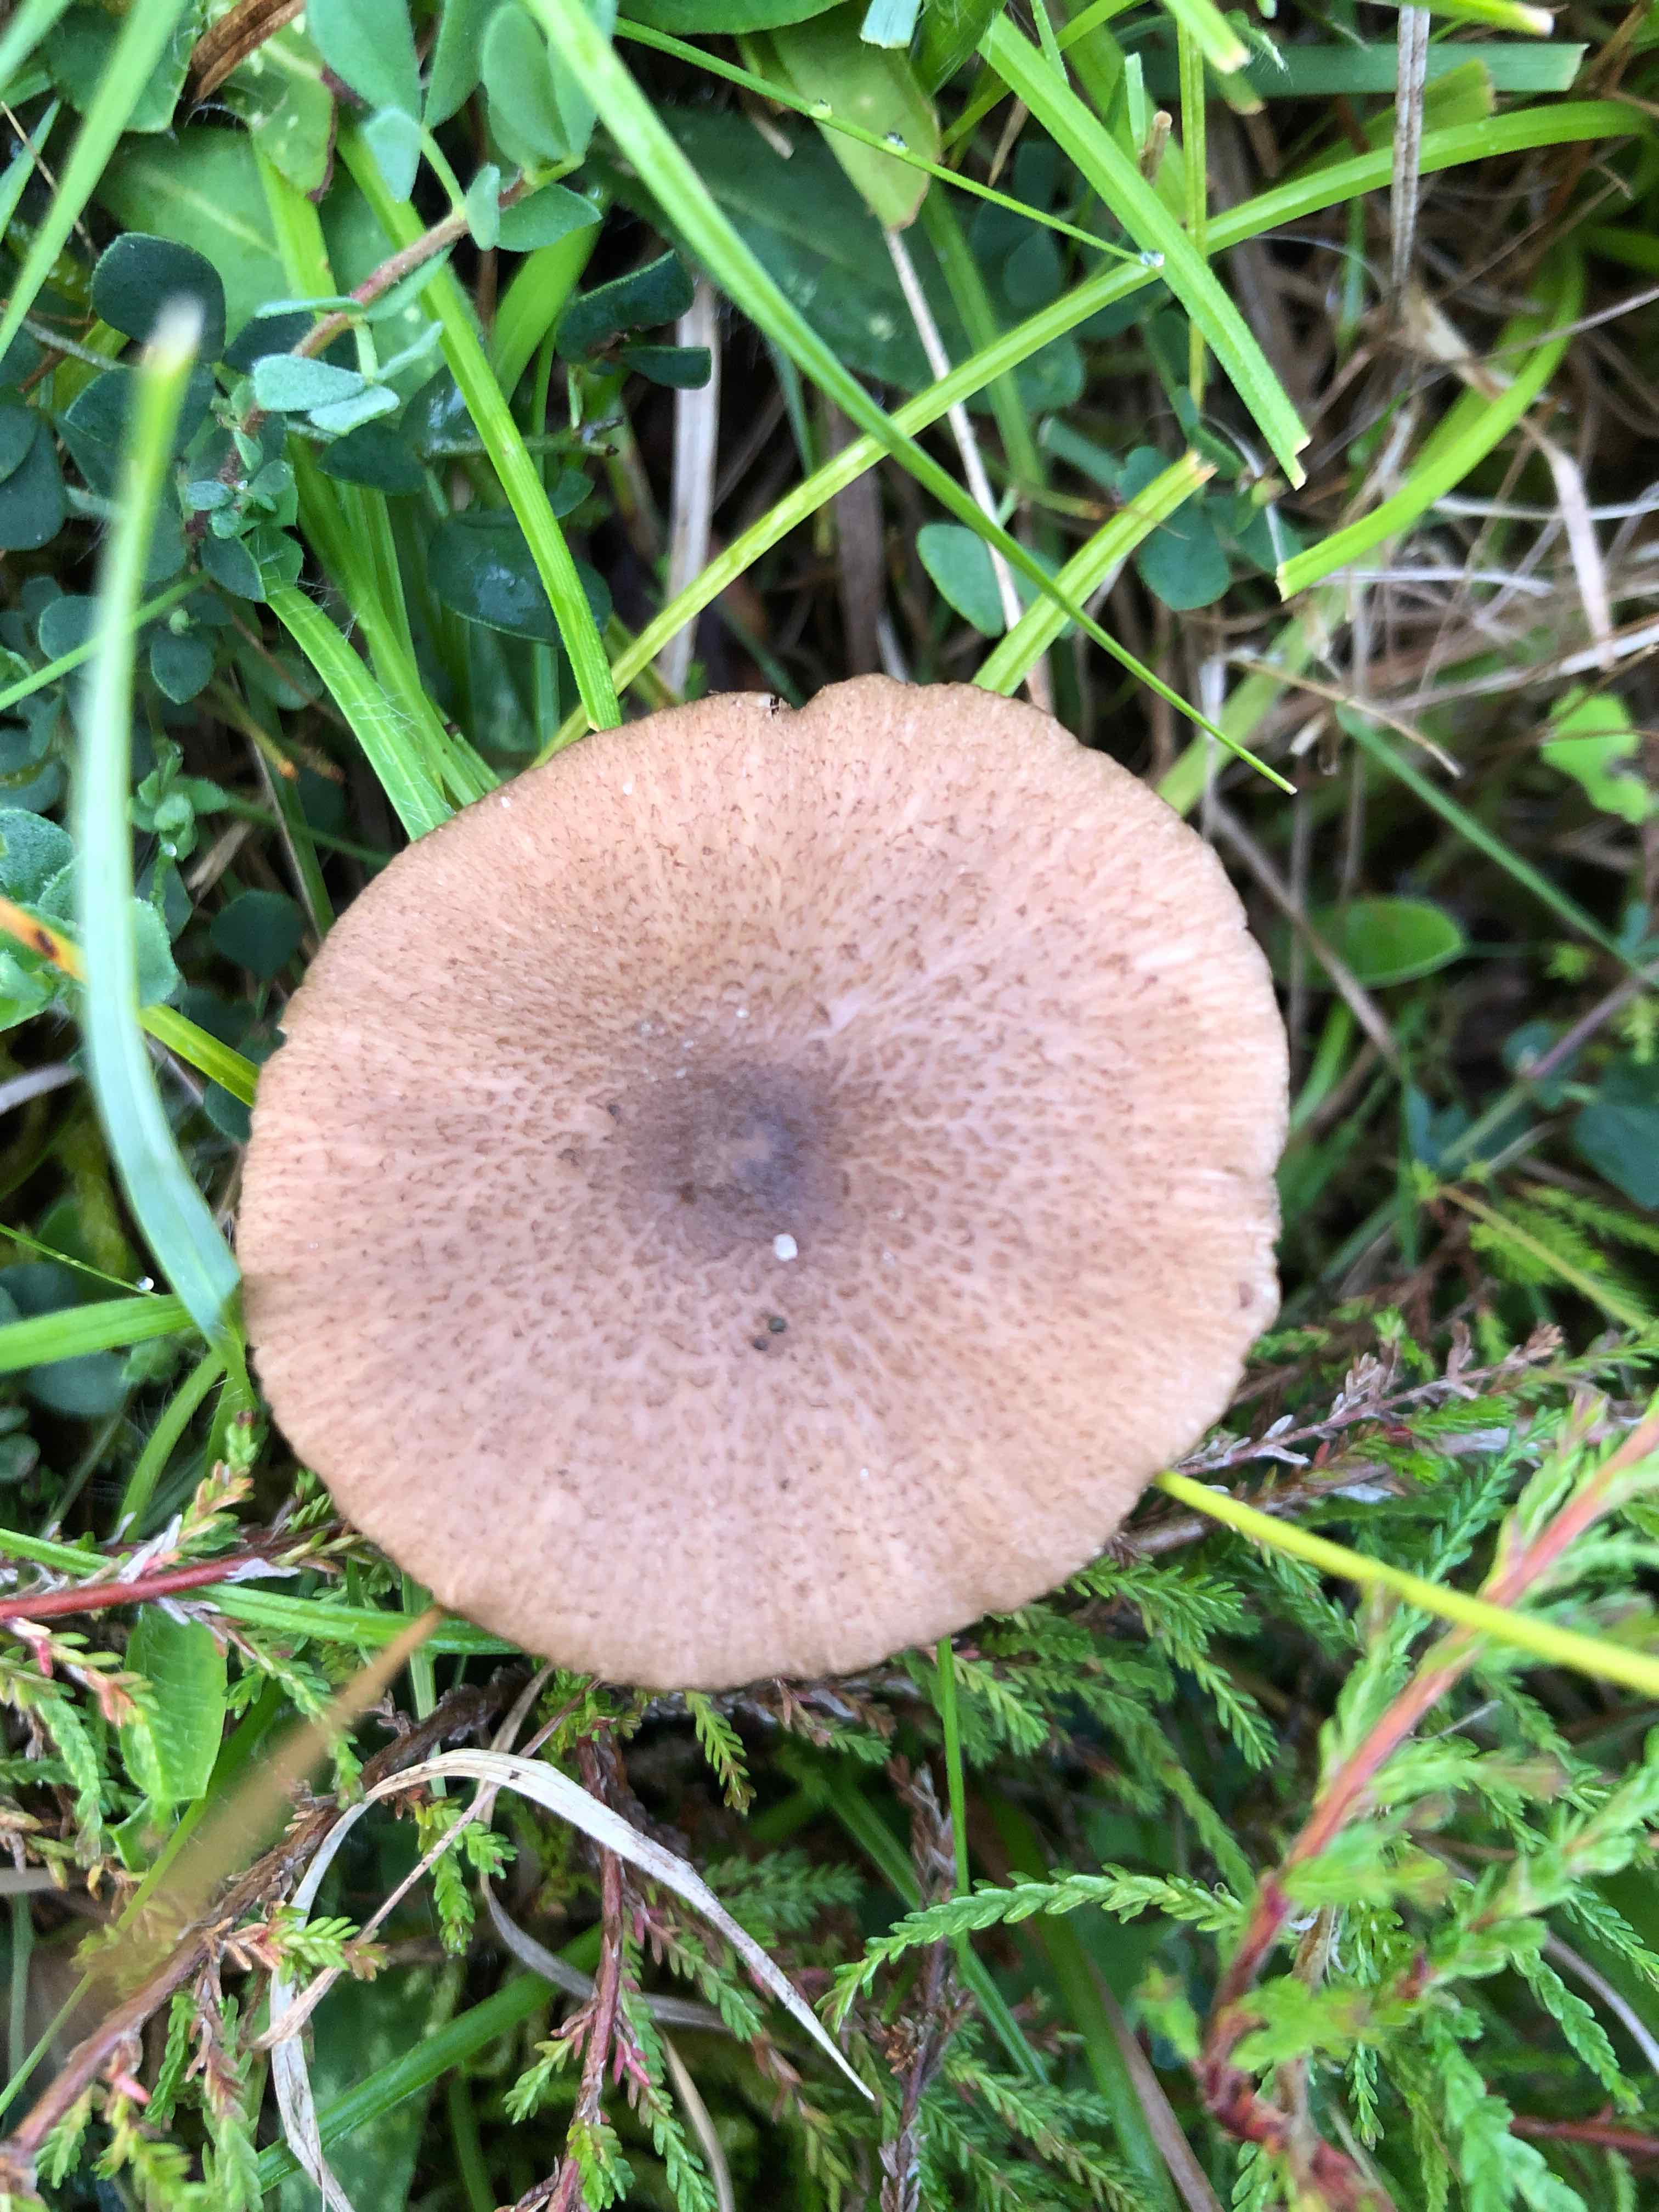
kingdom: Fungi
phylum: Basidiomycota
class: Agaricomycetes
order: Agaricales
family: Entolomataceae
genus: Entoloma
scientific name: Entoloma griseocyaneum
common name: gråblå rødblad
